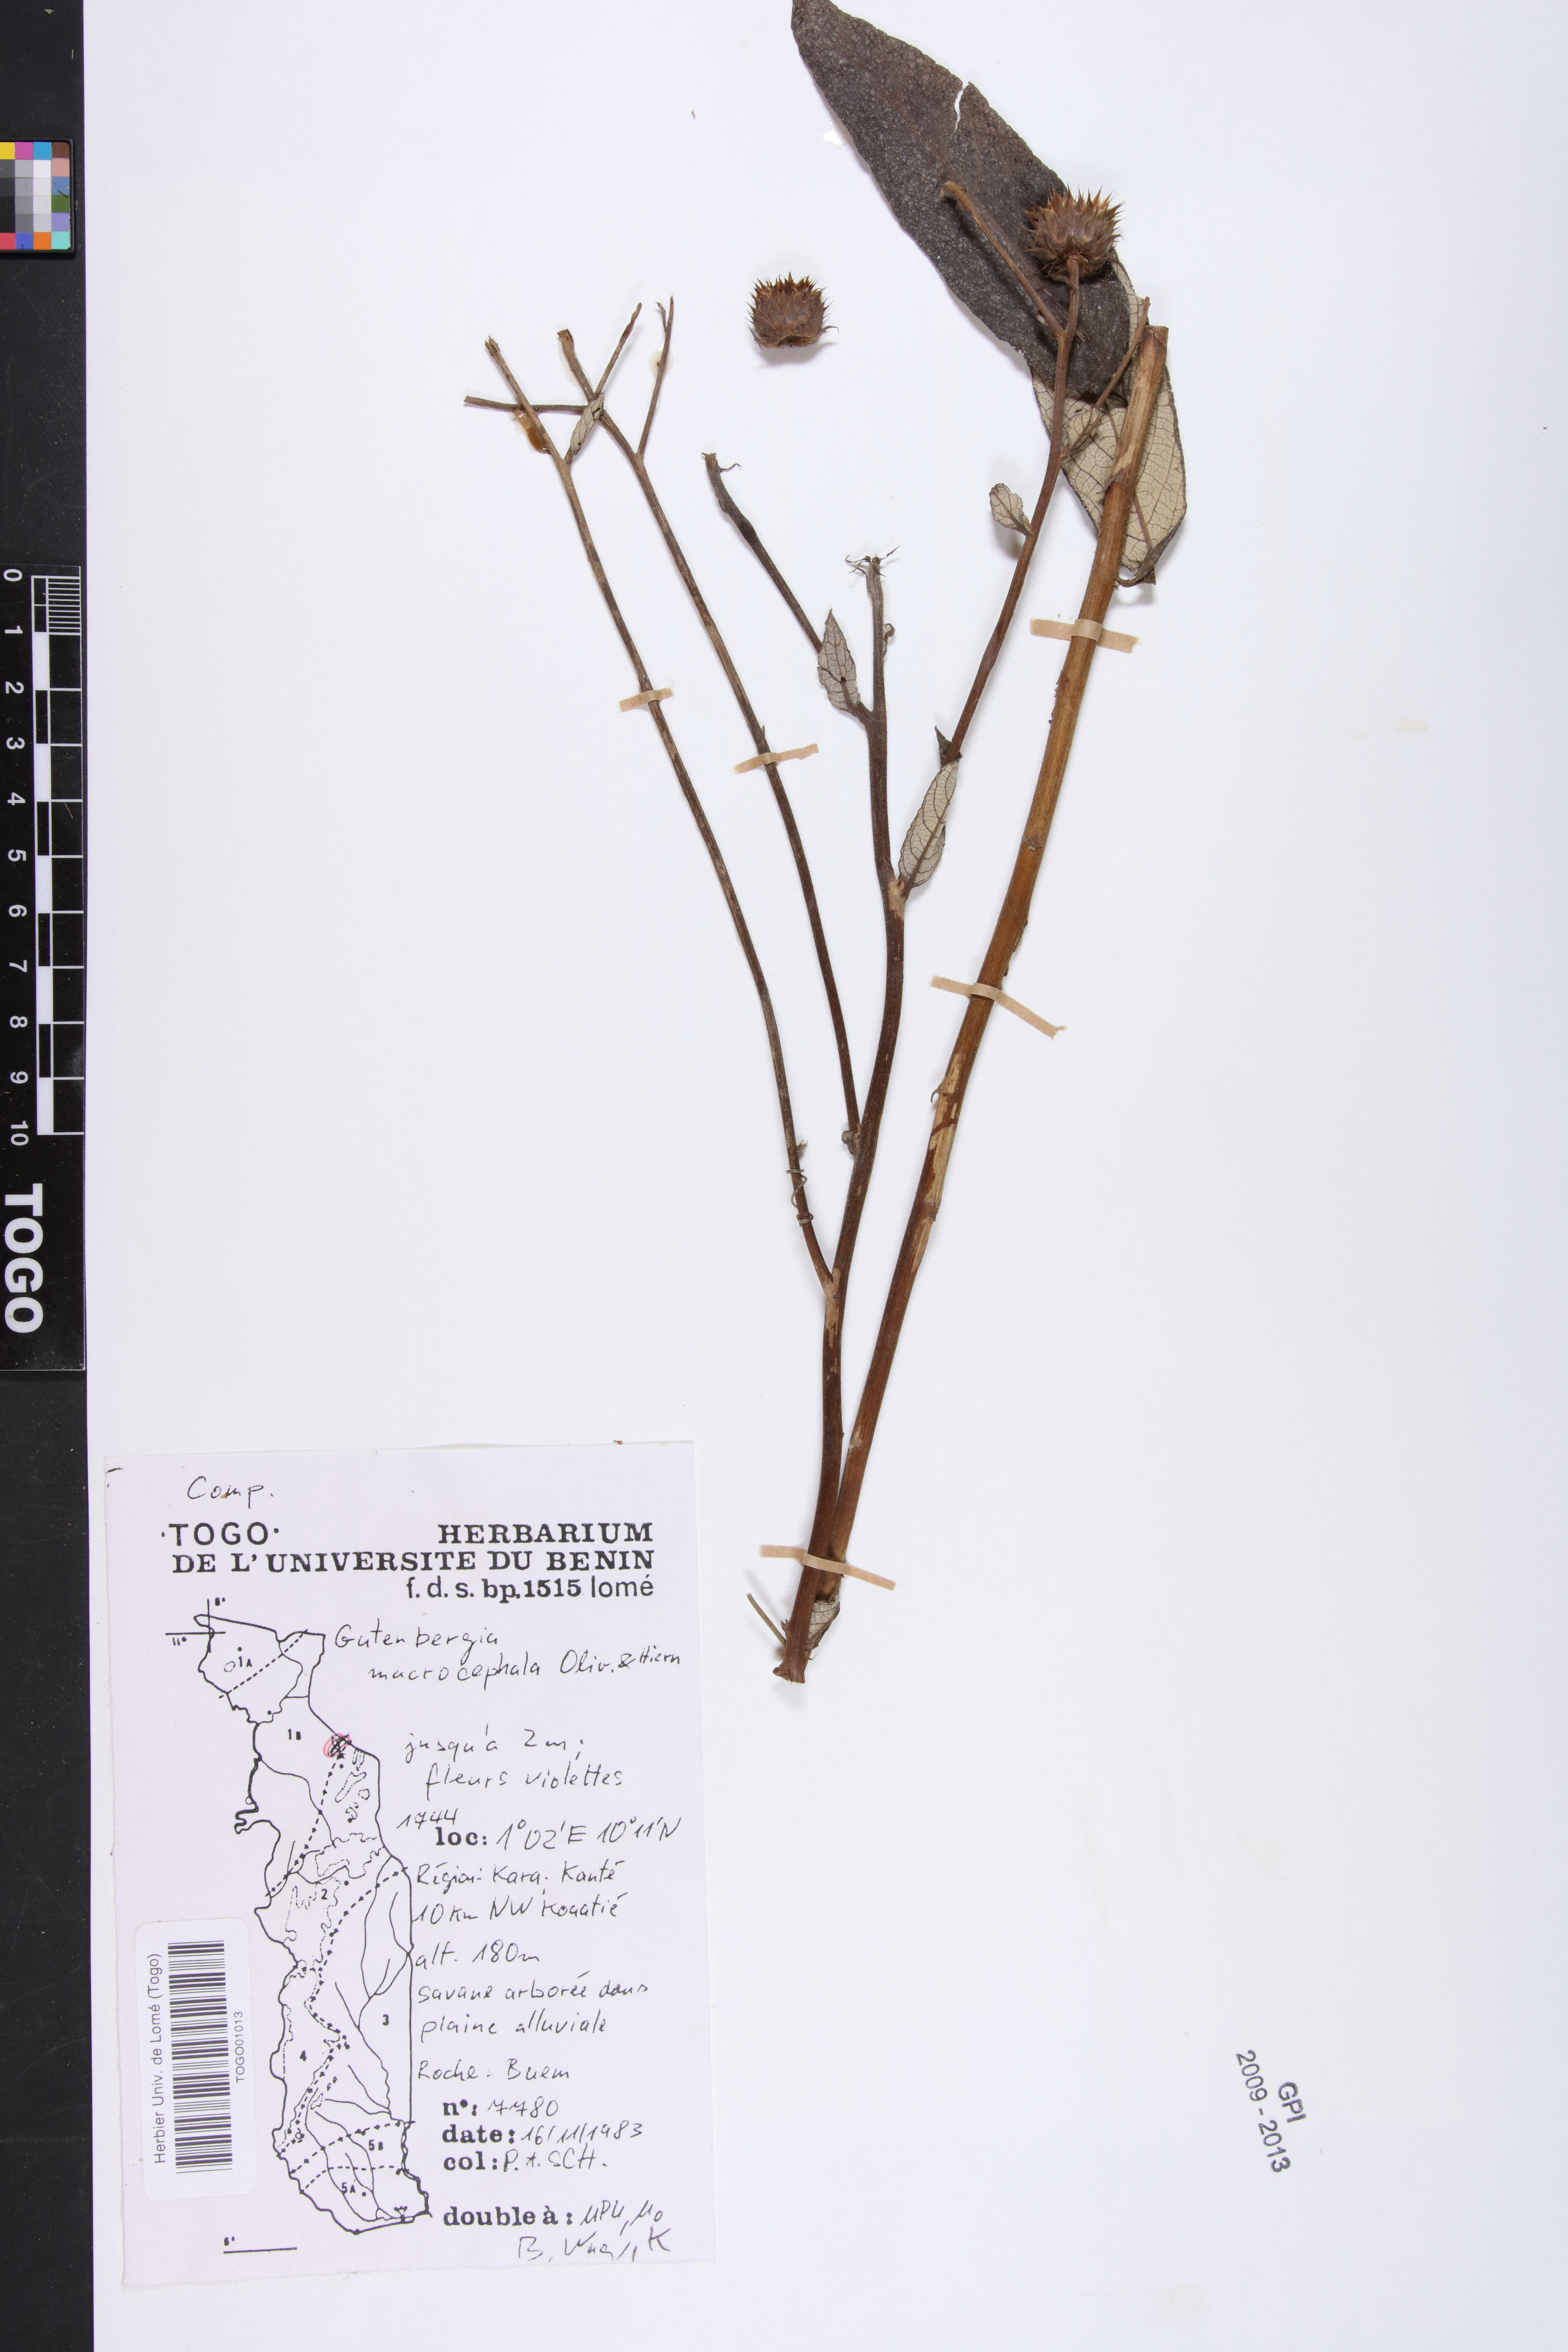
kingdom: Plantae
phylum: Tracheophyta
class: Magnoliopsida
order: Asterales
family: Asteraceae
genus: Kinghamia
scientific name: Kinghamia macrocephala
